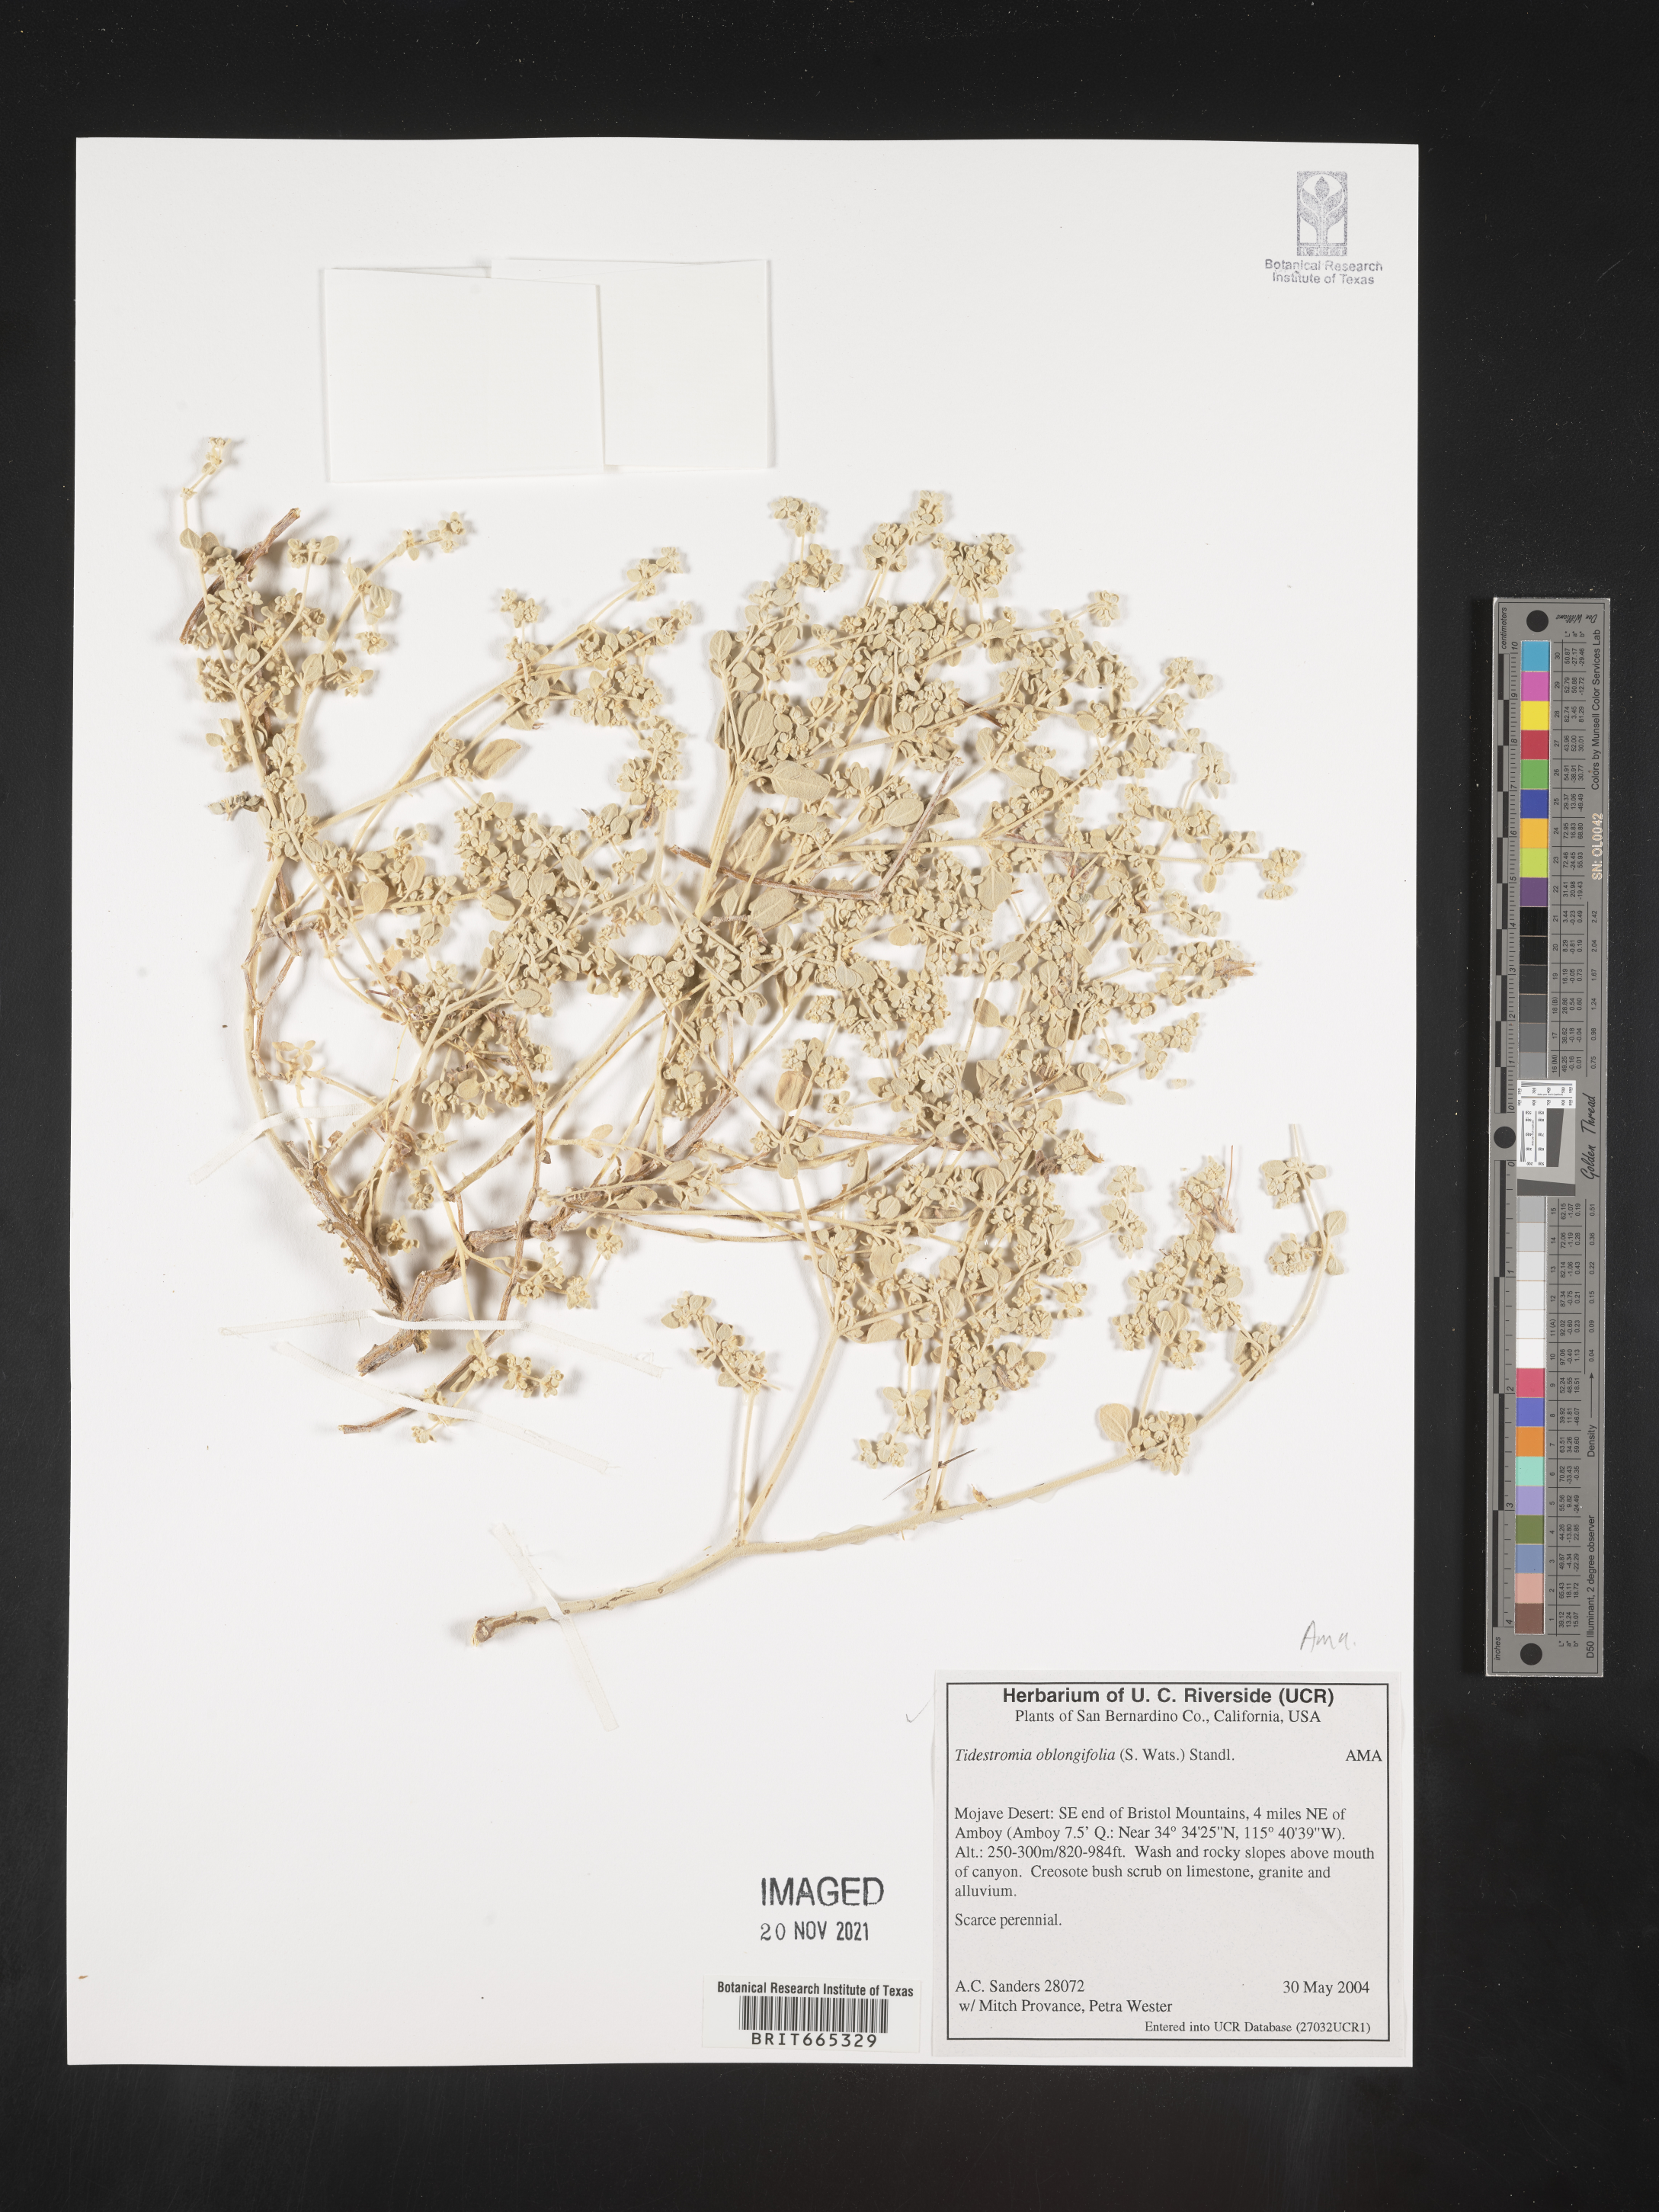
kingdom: Plantae
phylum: Tracheophyta
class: Magnoliopsida
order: Caryophyllales
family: Amaranthaceae
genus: Tidestromia
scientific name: Tidestromia suffruticosa
